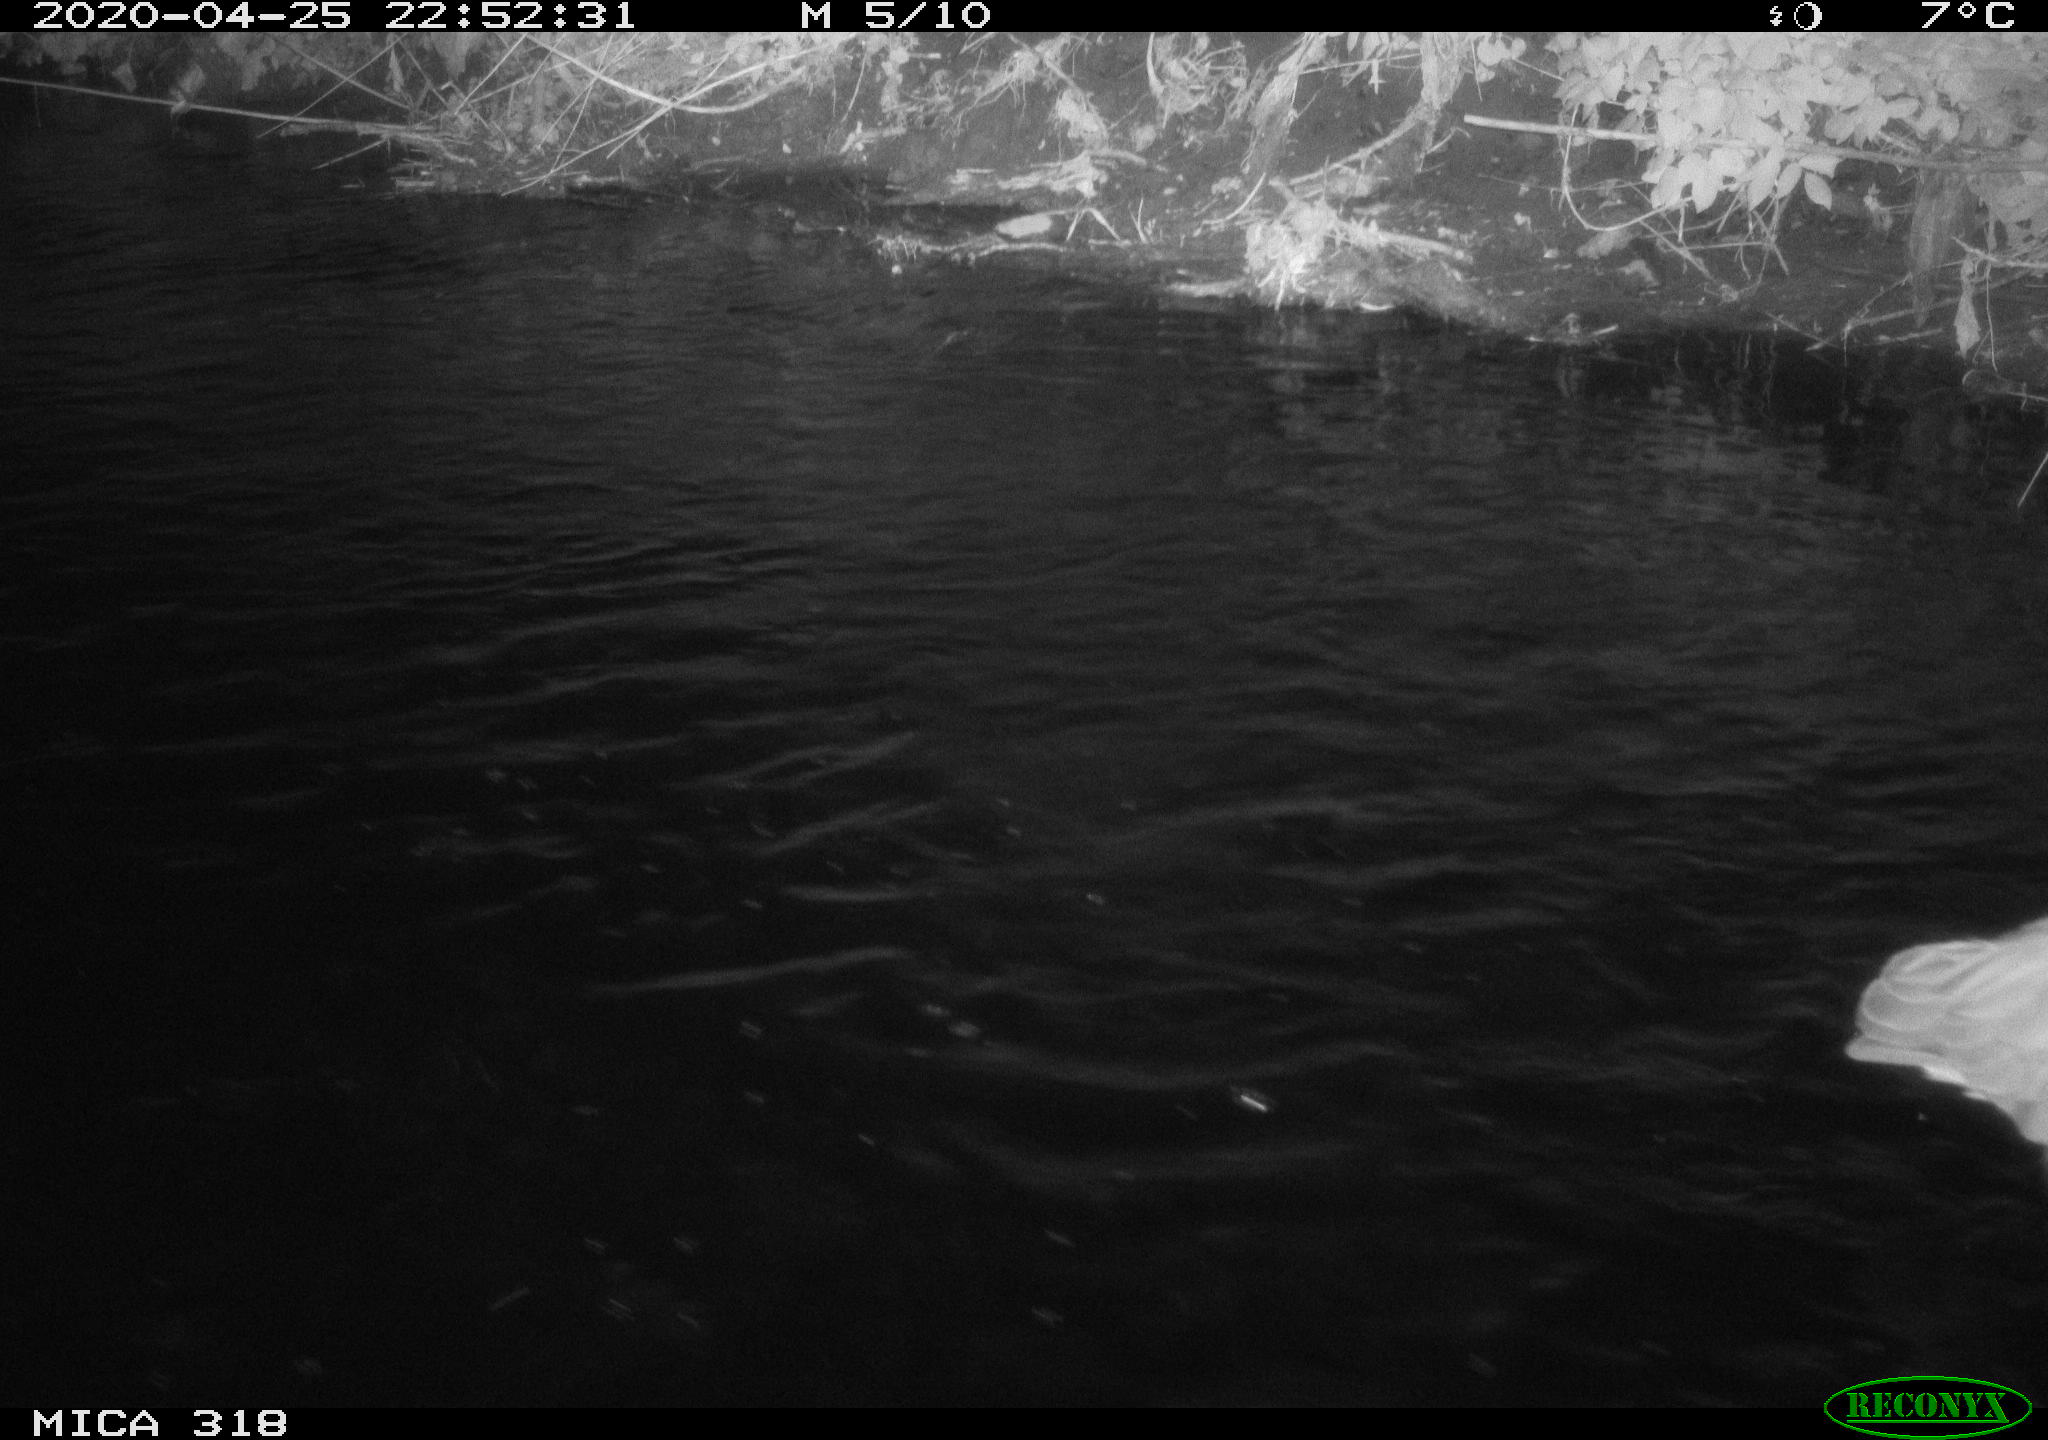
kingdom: Animalia
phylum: Chordata
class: Aves
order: Pelecaniformes
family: Ardeidae
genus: Ardea
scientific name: Ardea cinerea
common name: Grey heron
